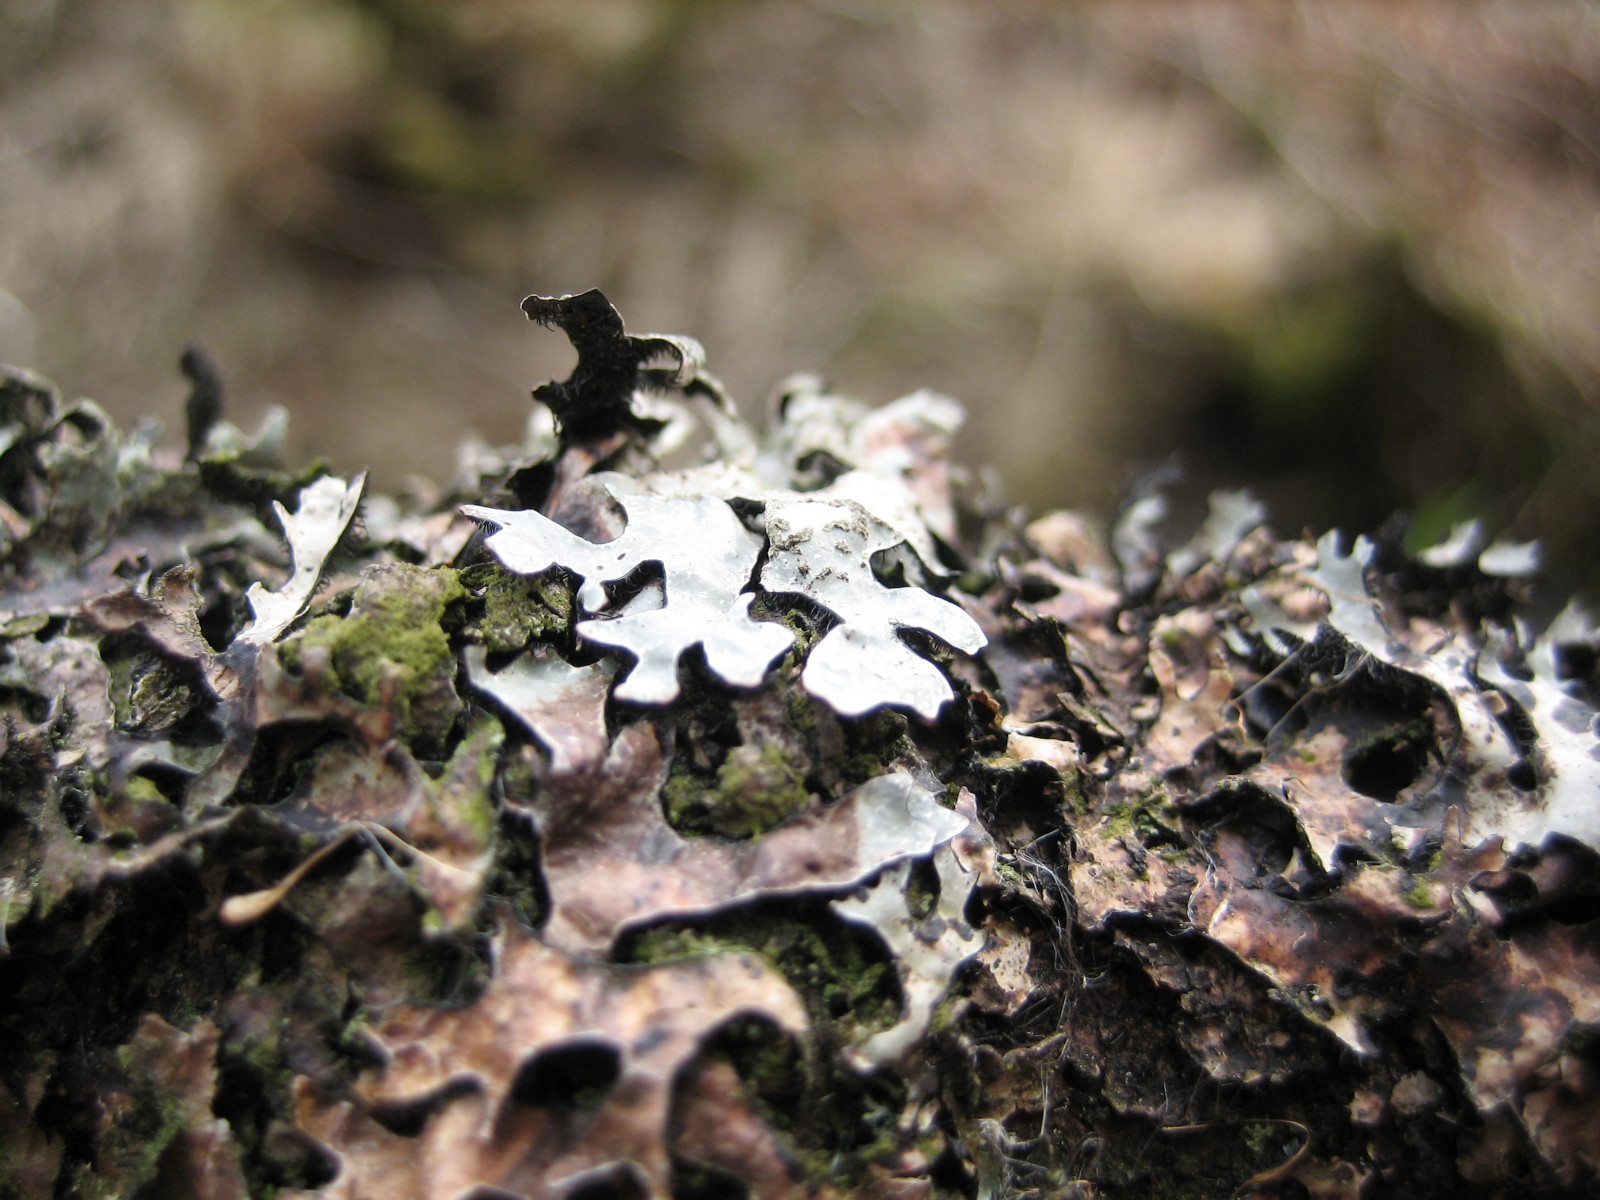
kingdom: Fungi
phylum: Ascomycota
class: Lecanoromycetes
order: Lecanorales
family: Parmeliaceae
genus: Parmelia
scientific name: Parmelia sulcata
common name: rynket skållav
